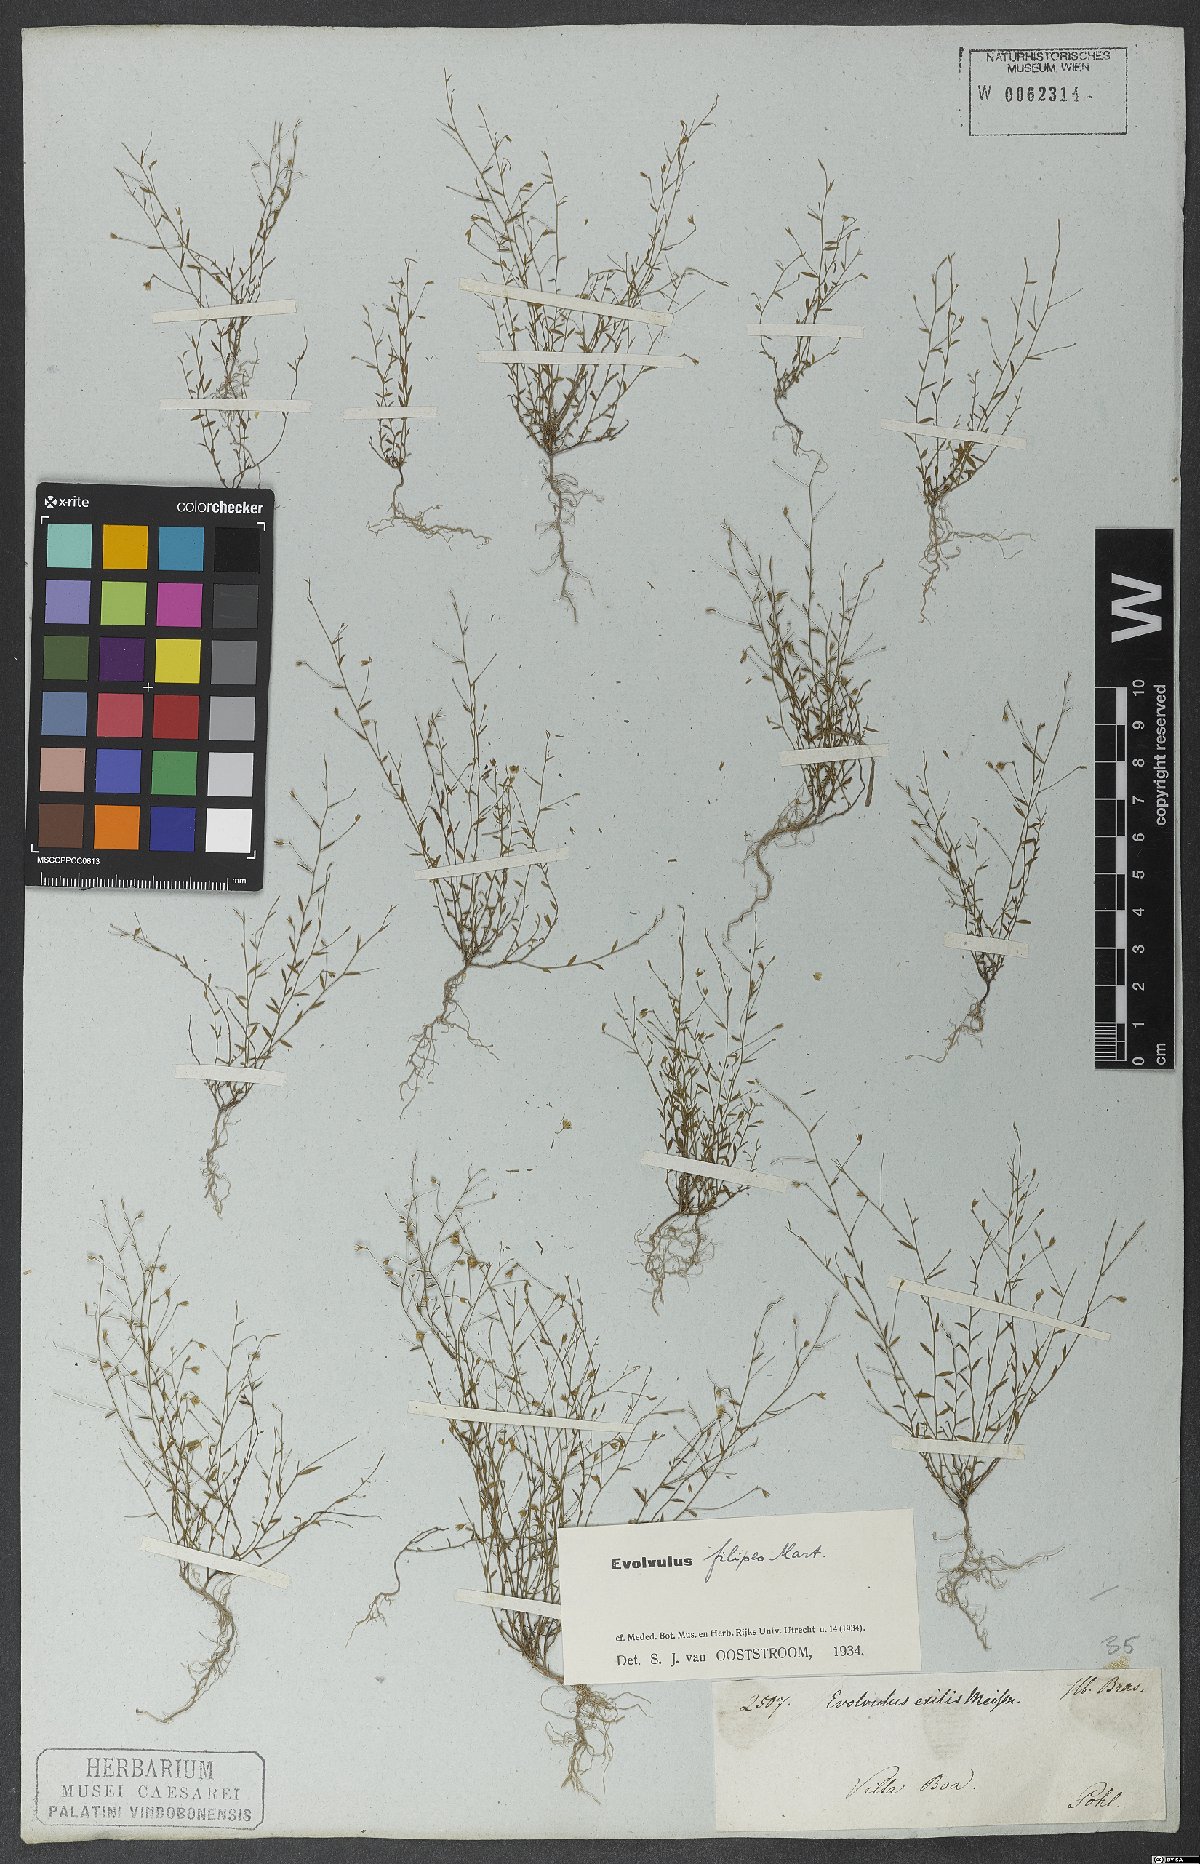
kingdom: Plantae
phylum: Tracheophyta
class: Magnoliopsida
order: Solanales
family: Convolvulaceae
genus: Evolvulus
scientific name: Evolvulus filipes
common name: Maryland dwarf morning-glory
